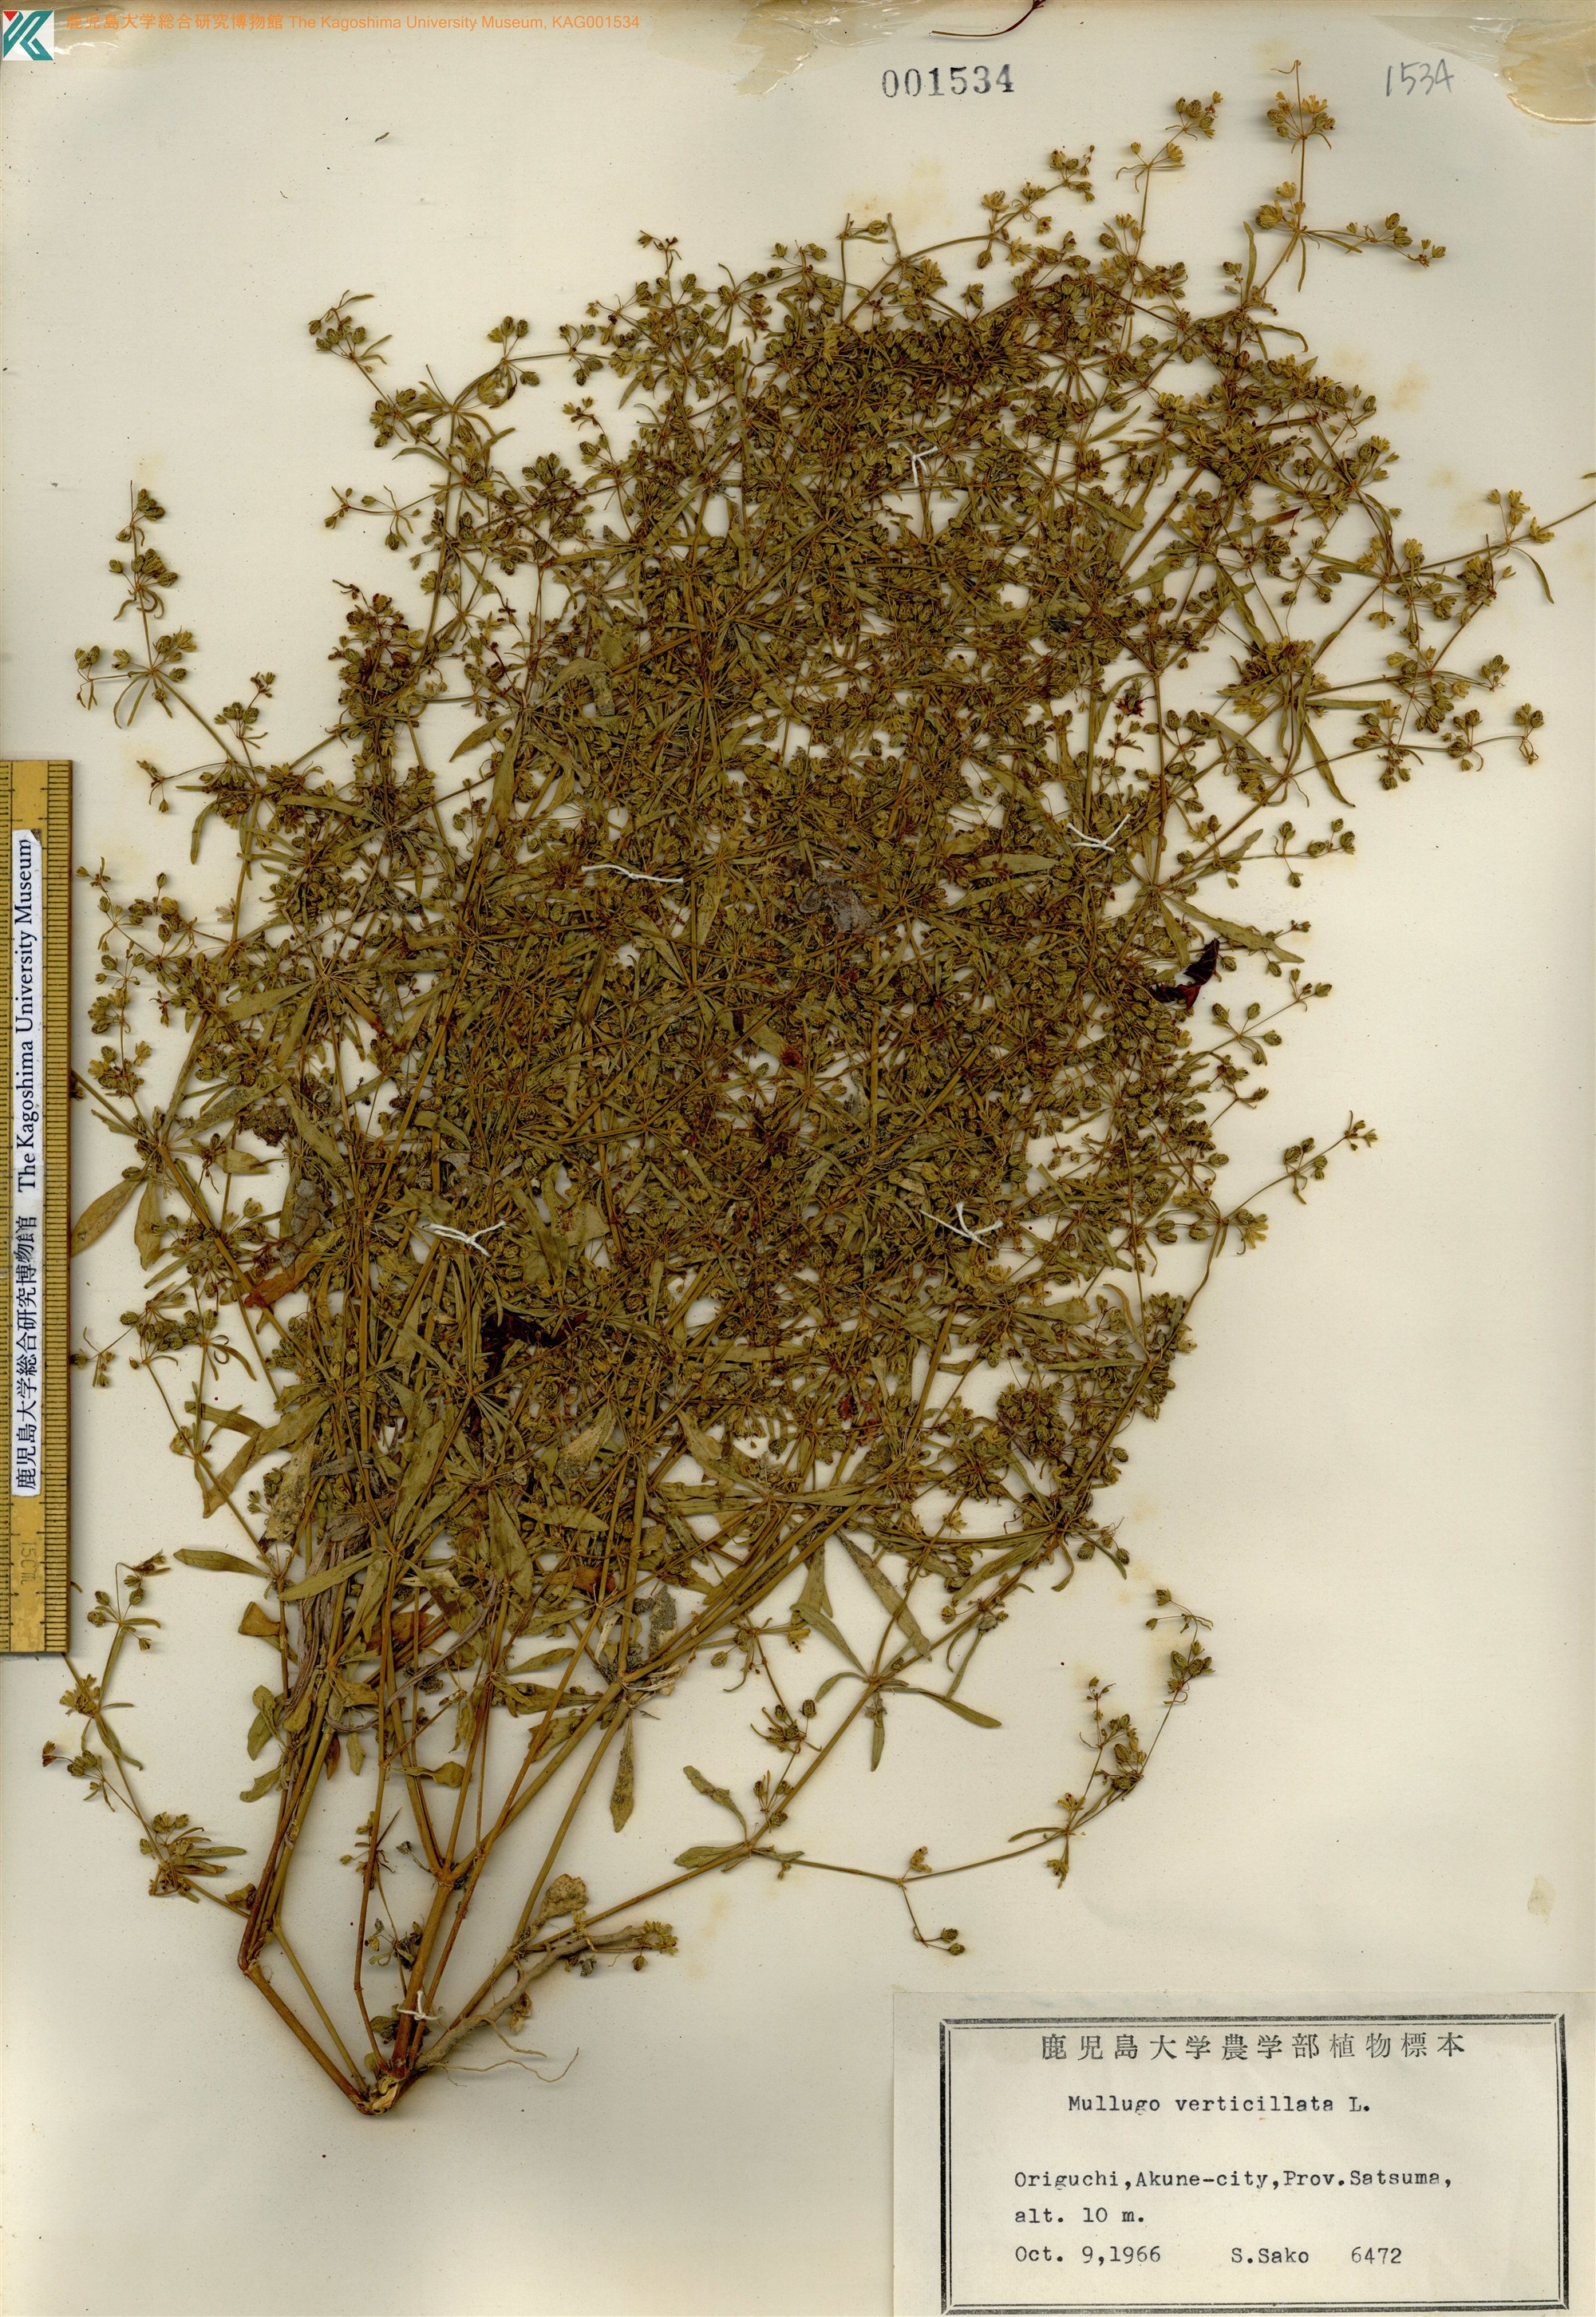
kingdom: Plantae
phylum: Tracheophyta
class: Magnoliopsida
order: Caryophyllales
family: Molluginaceae
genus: Mollugo
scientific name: Mollugo verticillata
